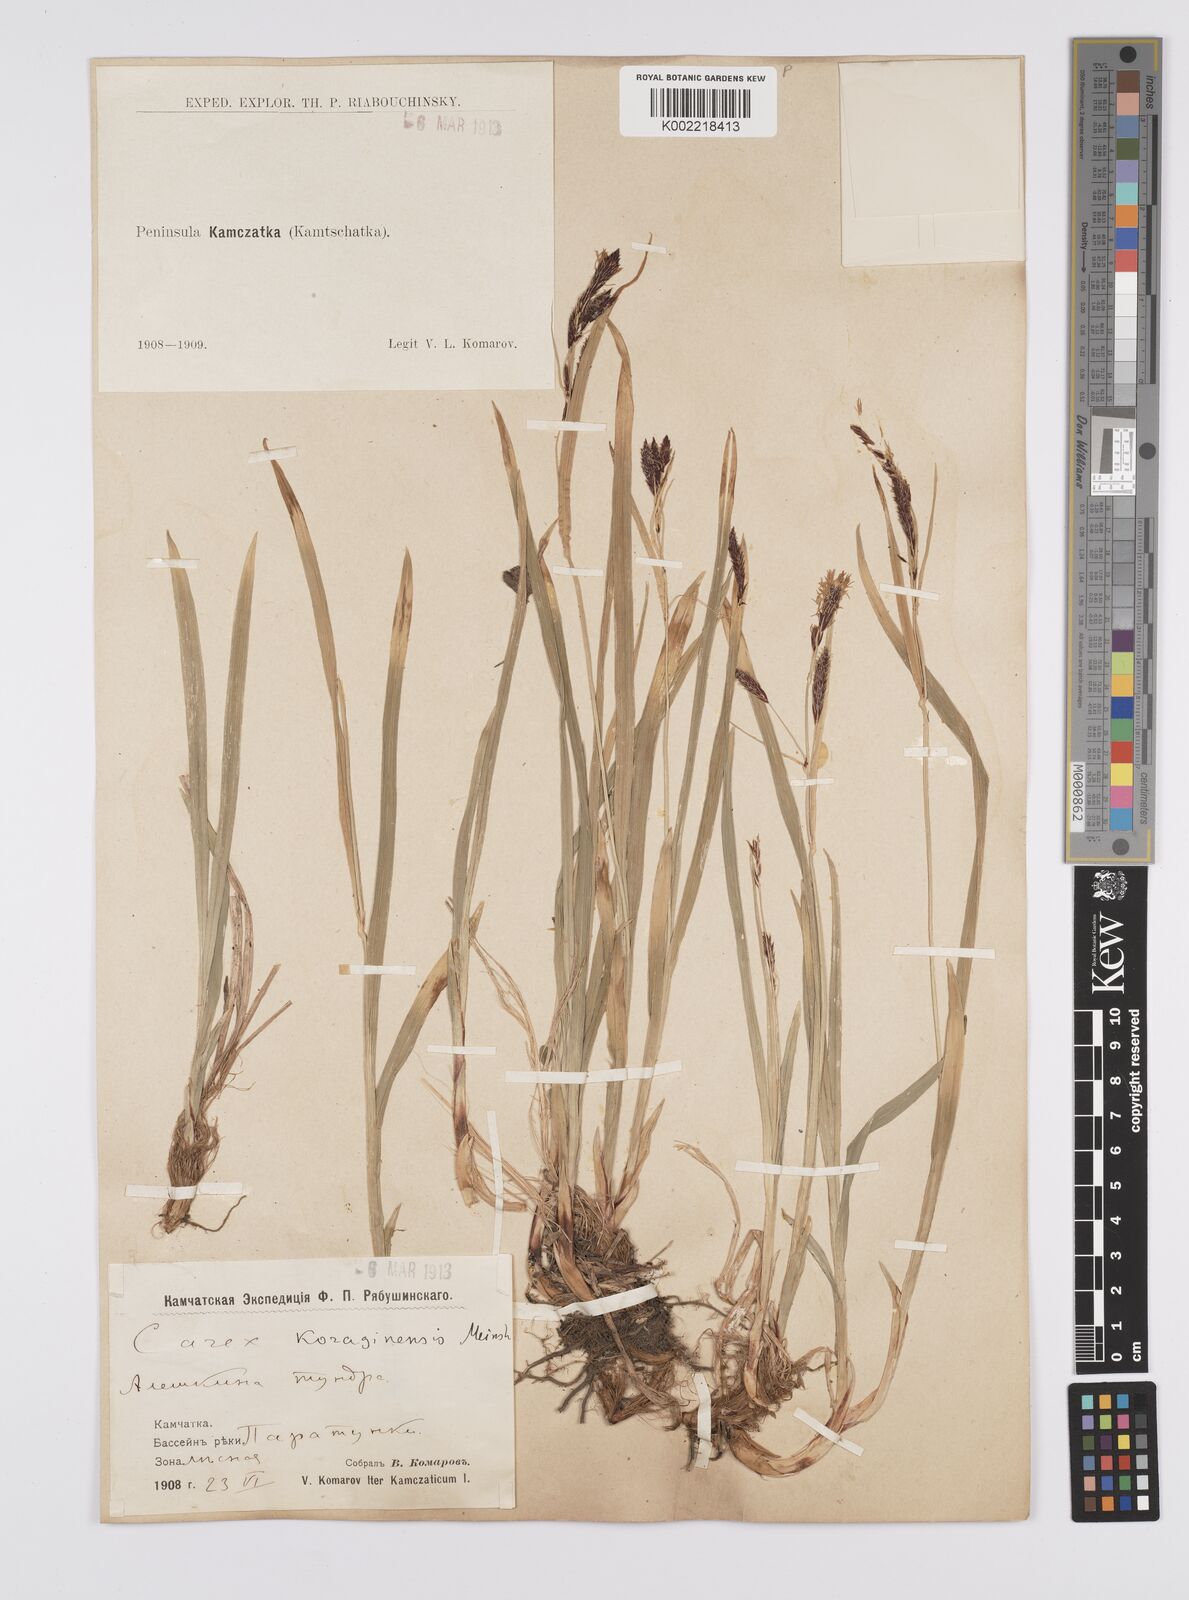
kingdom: Plantae
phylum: Tracheophyta
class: Liliopsida
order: Poales
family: Cyperaceae
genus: Carex
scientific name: Carex scita
